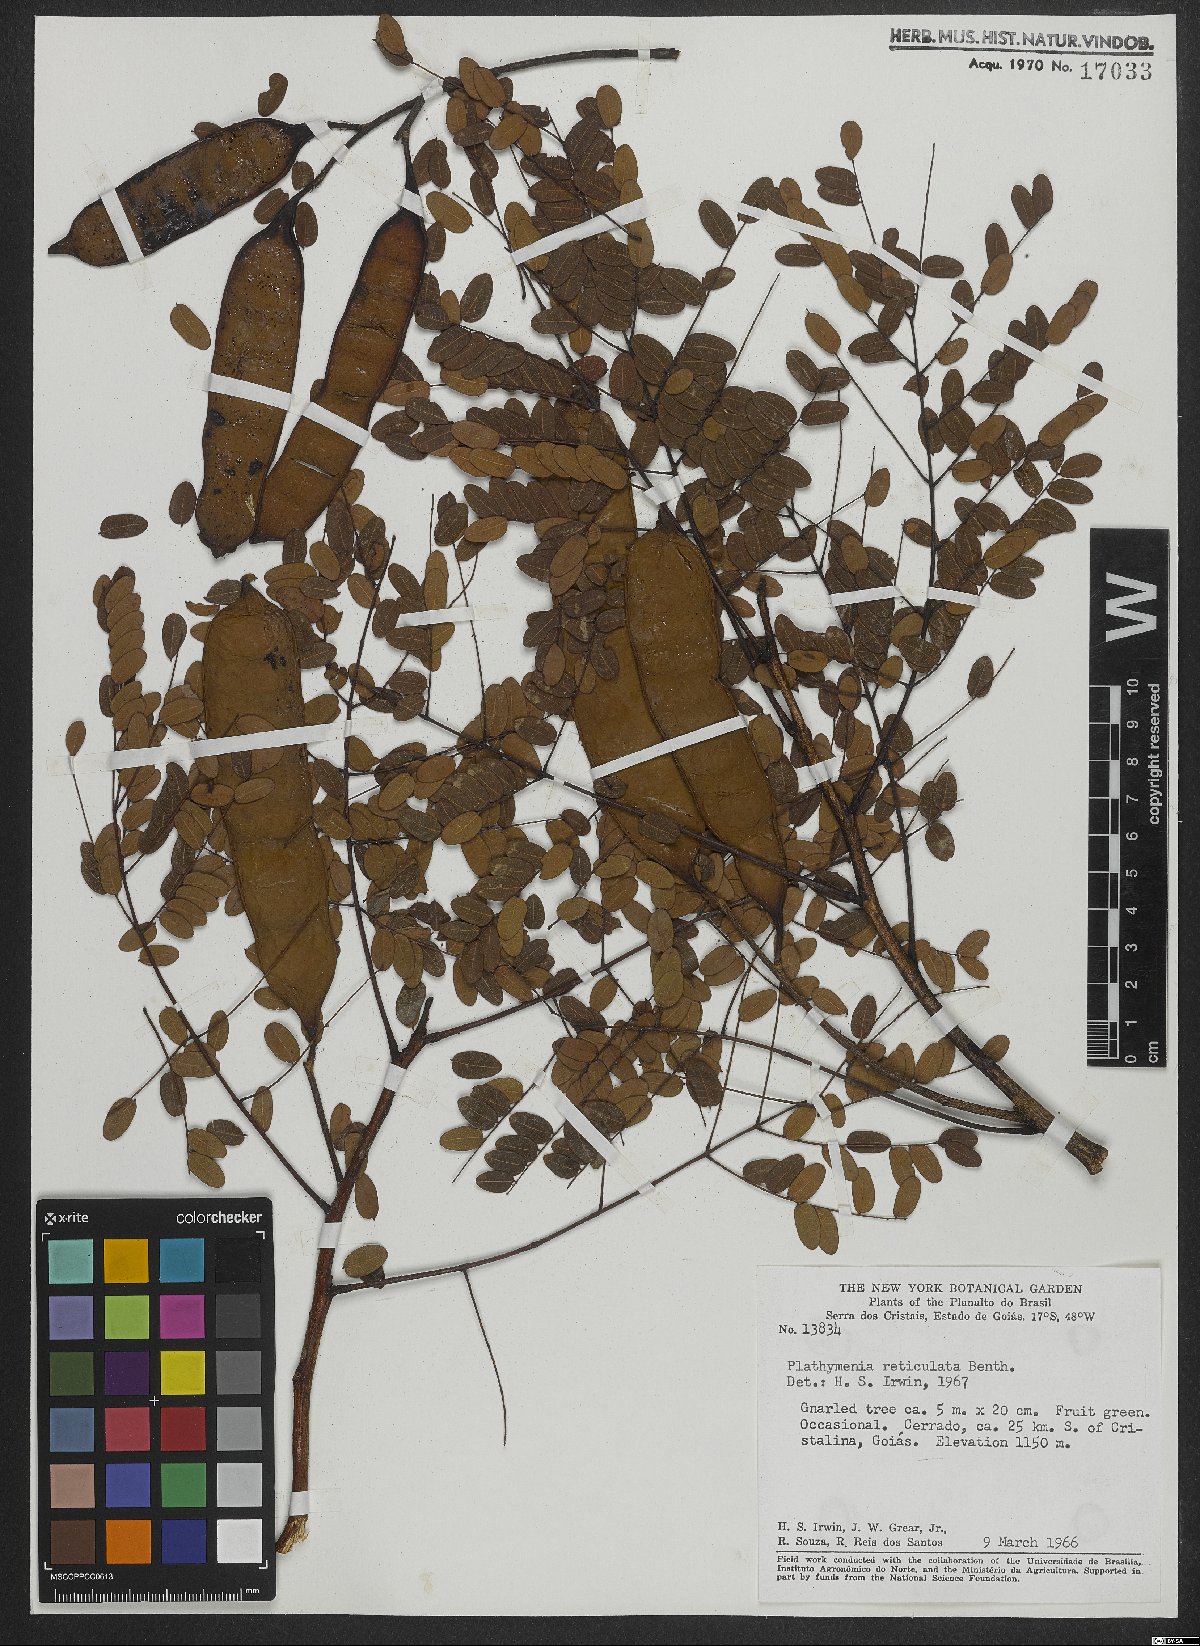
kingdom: Plantae
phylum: Tracheophyta
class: Magnoliopsida
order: Fabales
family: Fabaceae
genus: Plathymenia
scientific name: Plathymenia reticulata
